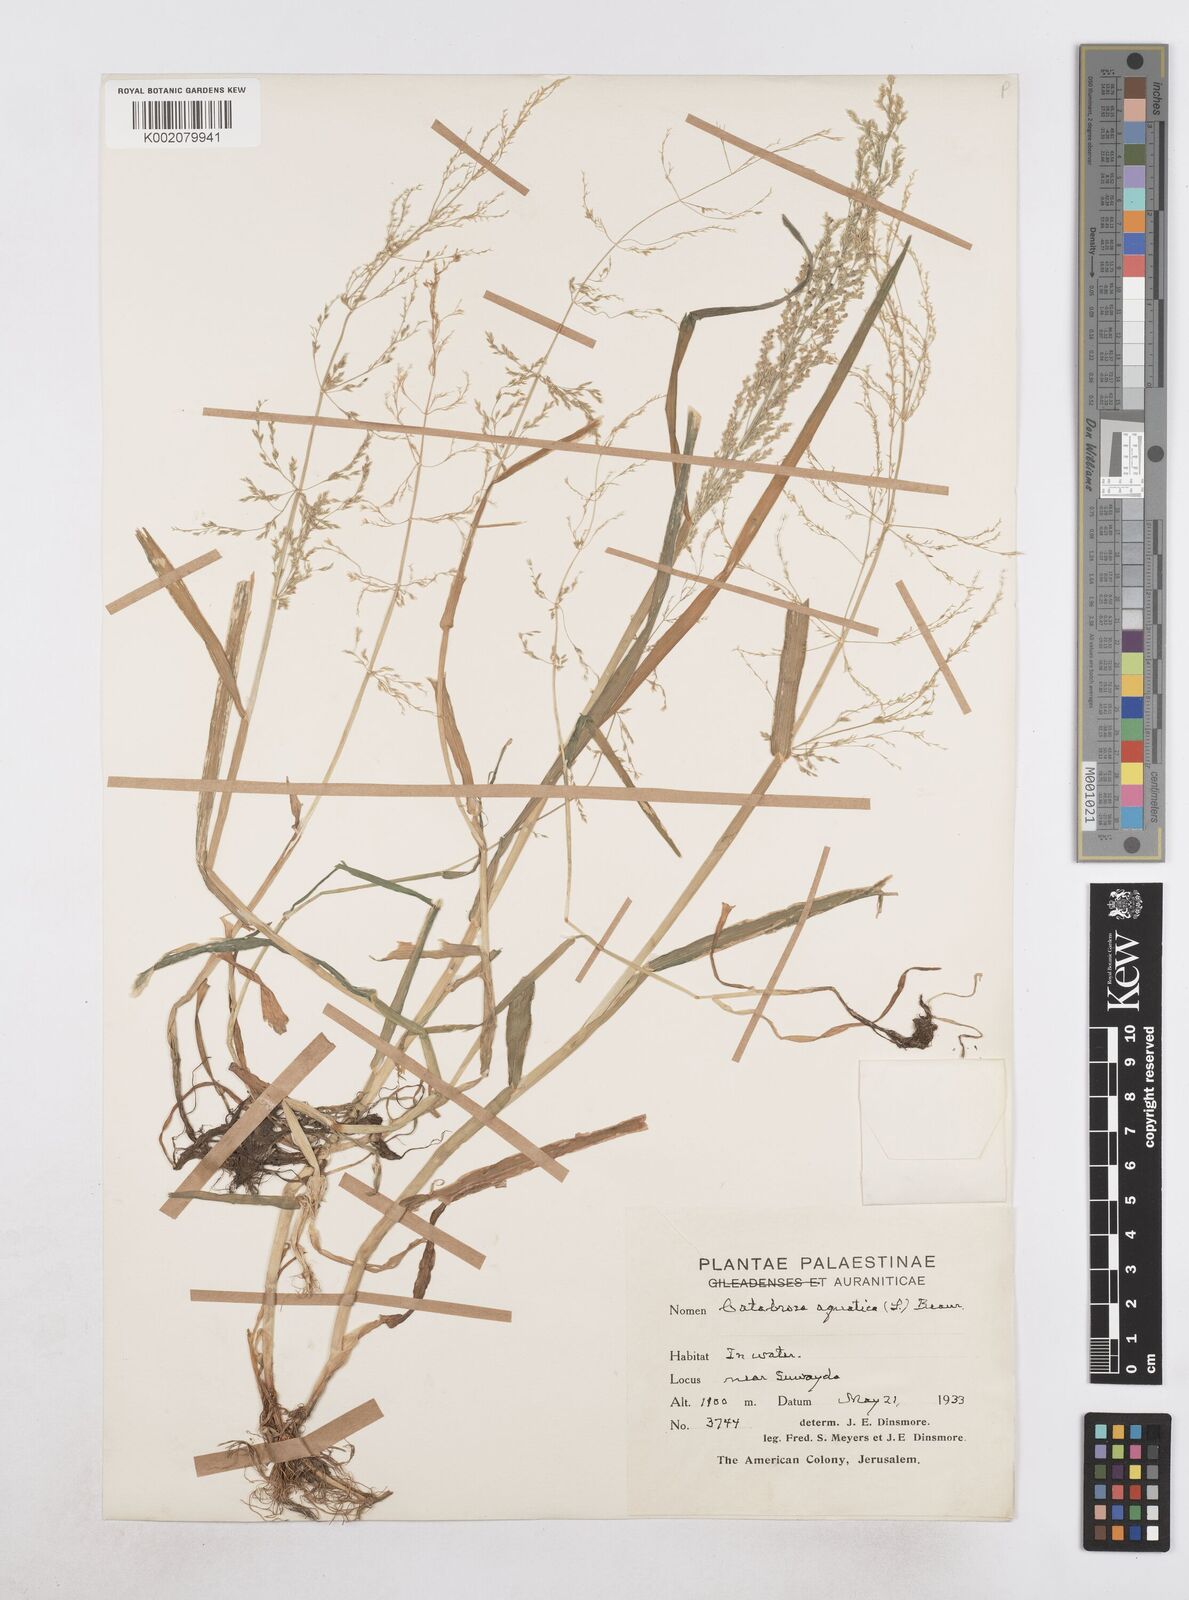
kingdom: Plantae
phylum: Tracheophyta
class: Liliopsida
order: Poales
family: Poaceae
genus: Catabrosa
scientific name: Catabrosa aquatica
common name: Whorl-grass
